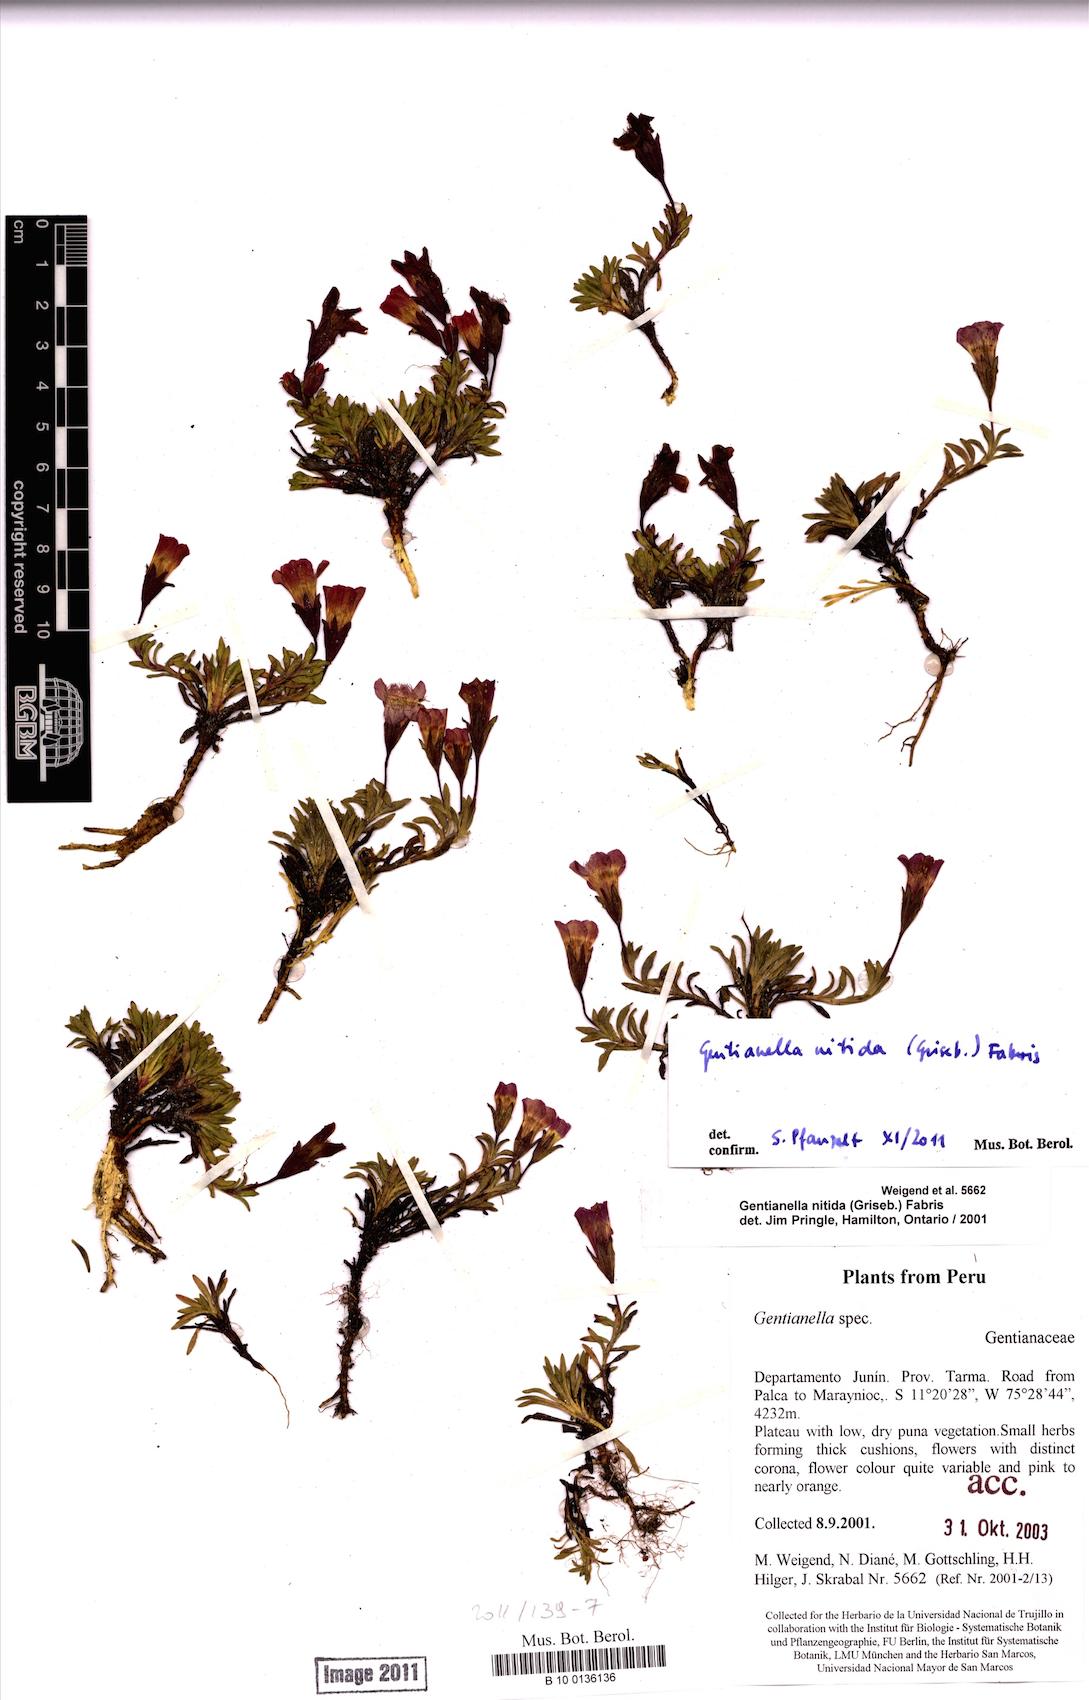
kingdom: Plantae
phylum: Tracheophyta
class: Magnoliopsida
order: Gentianales
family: Gentianaceae
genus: Gentianella
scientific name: Gentianella nitida
